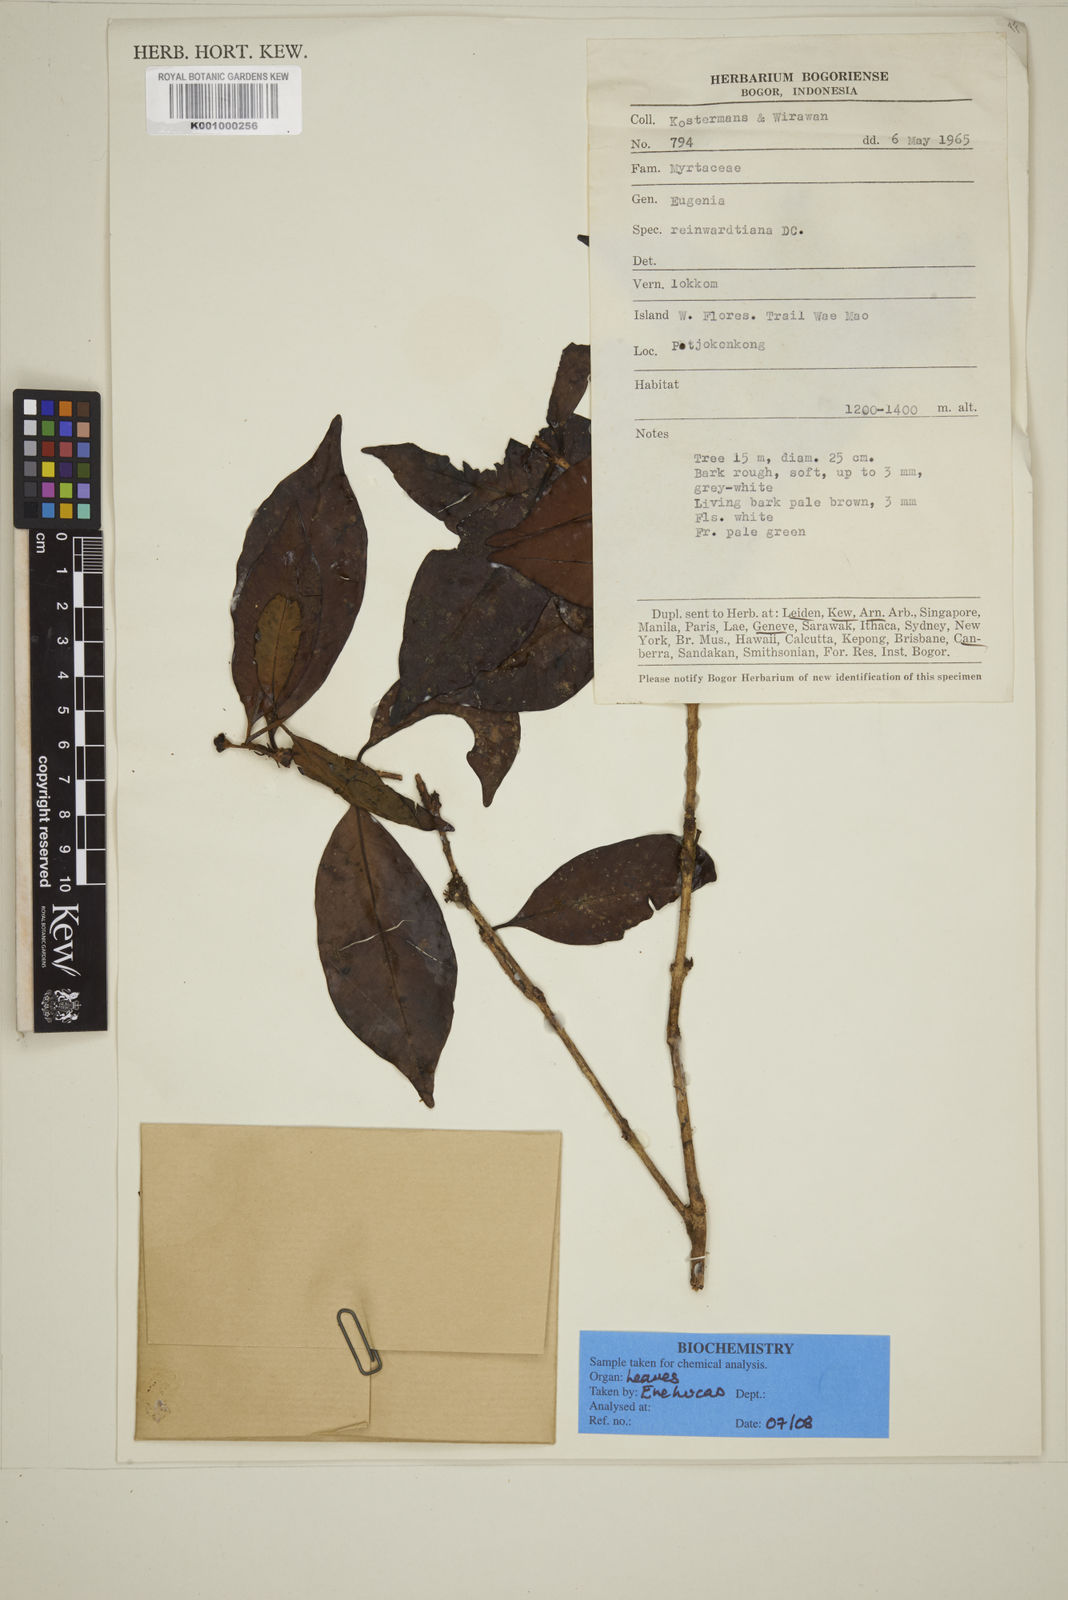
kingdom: Plantae
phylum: Tracheophyta
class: Magnoliopsida
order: Myrtales
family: Myrtaceae
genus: Eugenia
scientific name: Eugenia reinwardtiana
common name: Cedar bay-cherry
